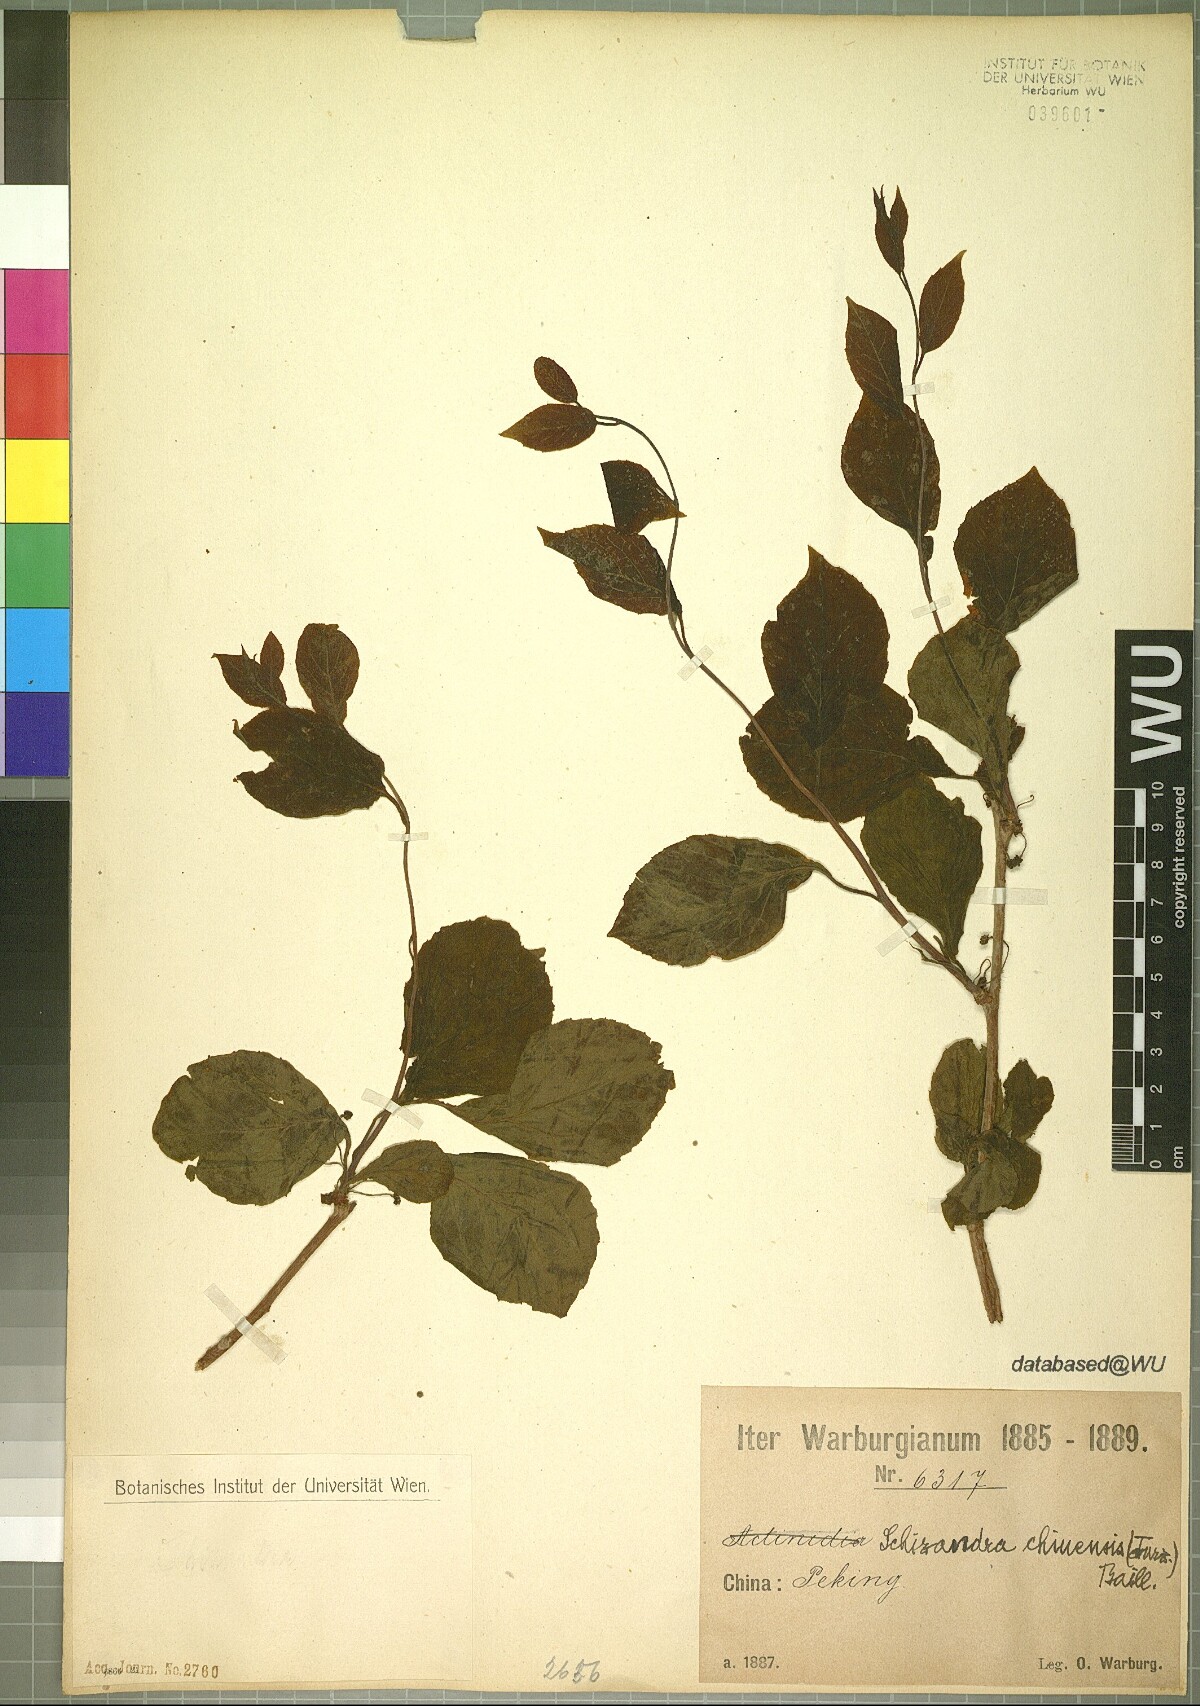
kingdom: Plantae
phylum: Tracheophyta
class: Magnoliopsida
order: Austrobaileyales
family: Schisandraceae
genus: Schisandra
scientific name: Schisandra chinensis
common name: Magnolia-vine
